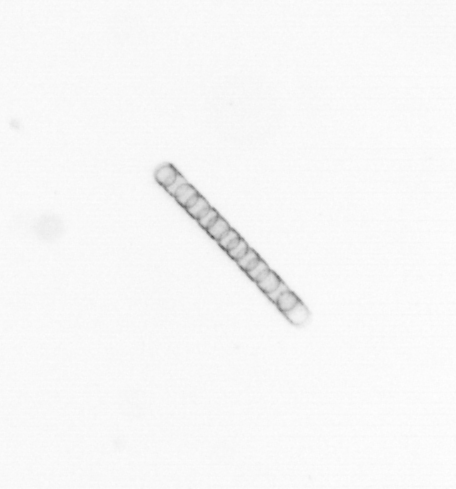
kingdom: Chromista
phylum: Ochrophyta
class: Bacillariophyceae
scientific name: Bacillariophyceae
